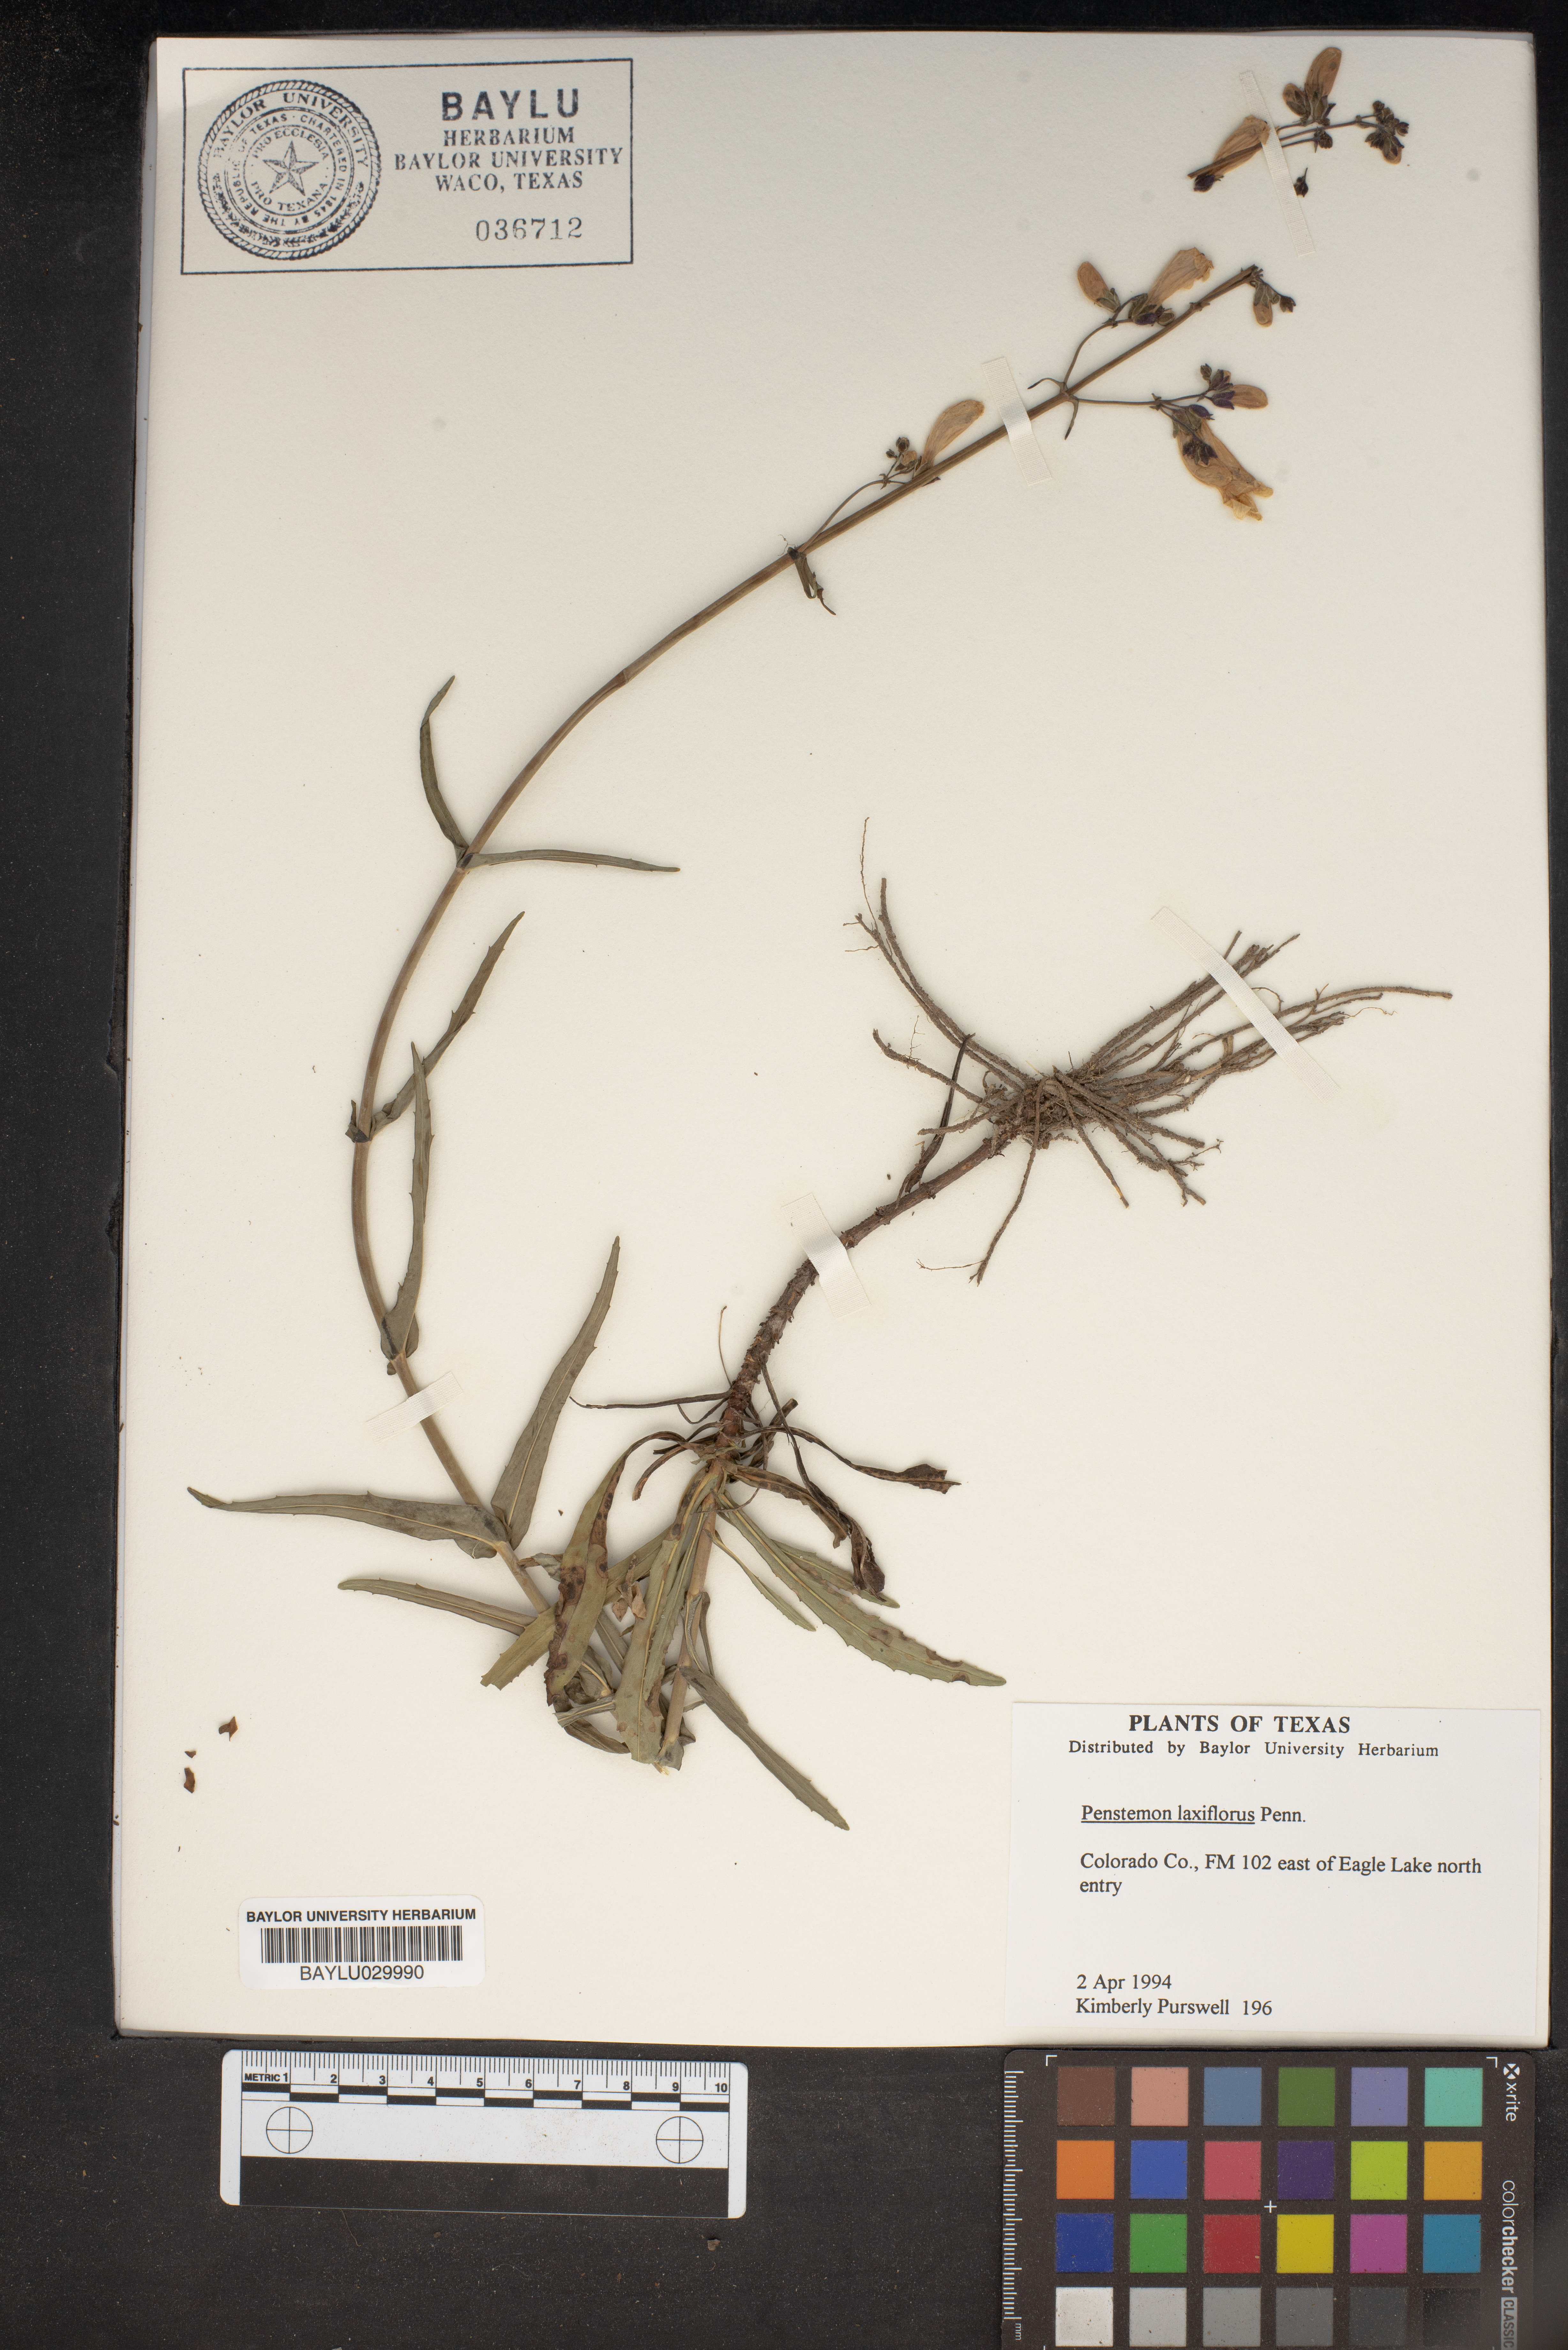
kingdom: Plantae
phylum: Tracheophyta
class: Magnoliopsida
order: Lamiales
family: Plantaginaceae
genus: Penstemon
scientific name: Penstemon laxiflorus
